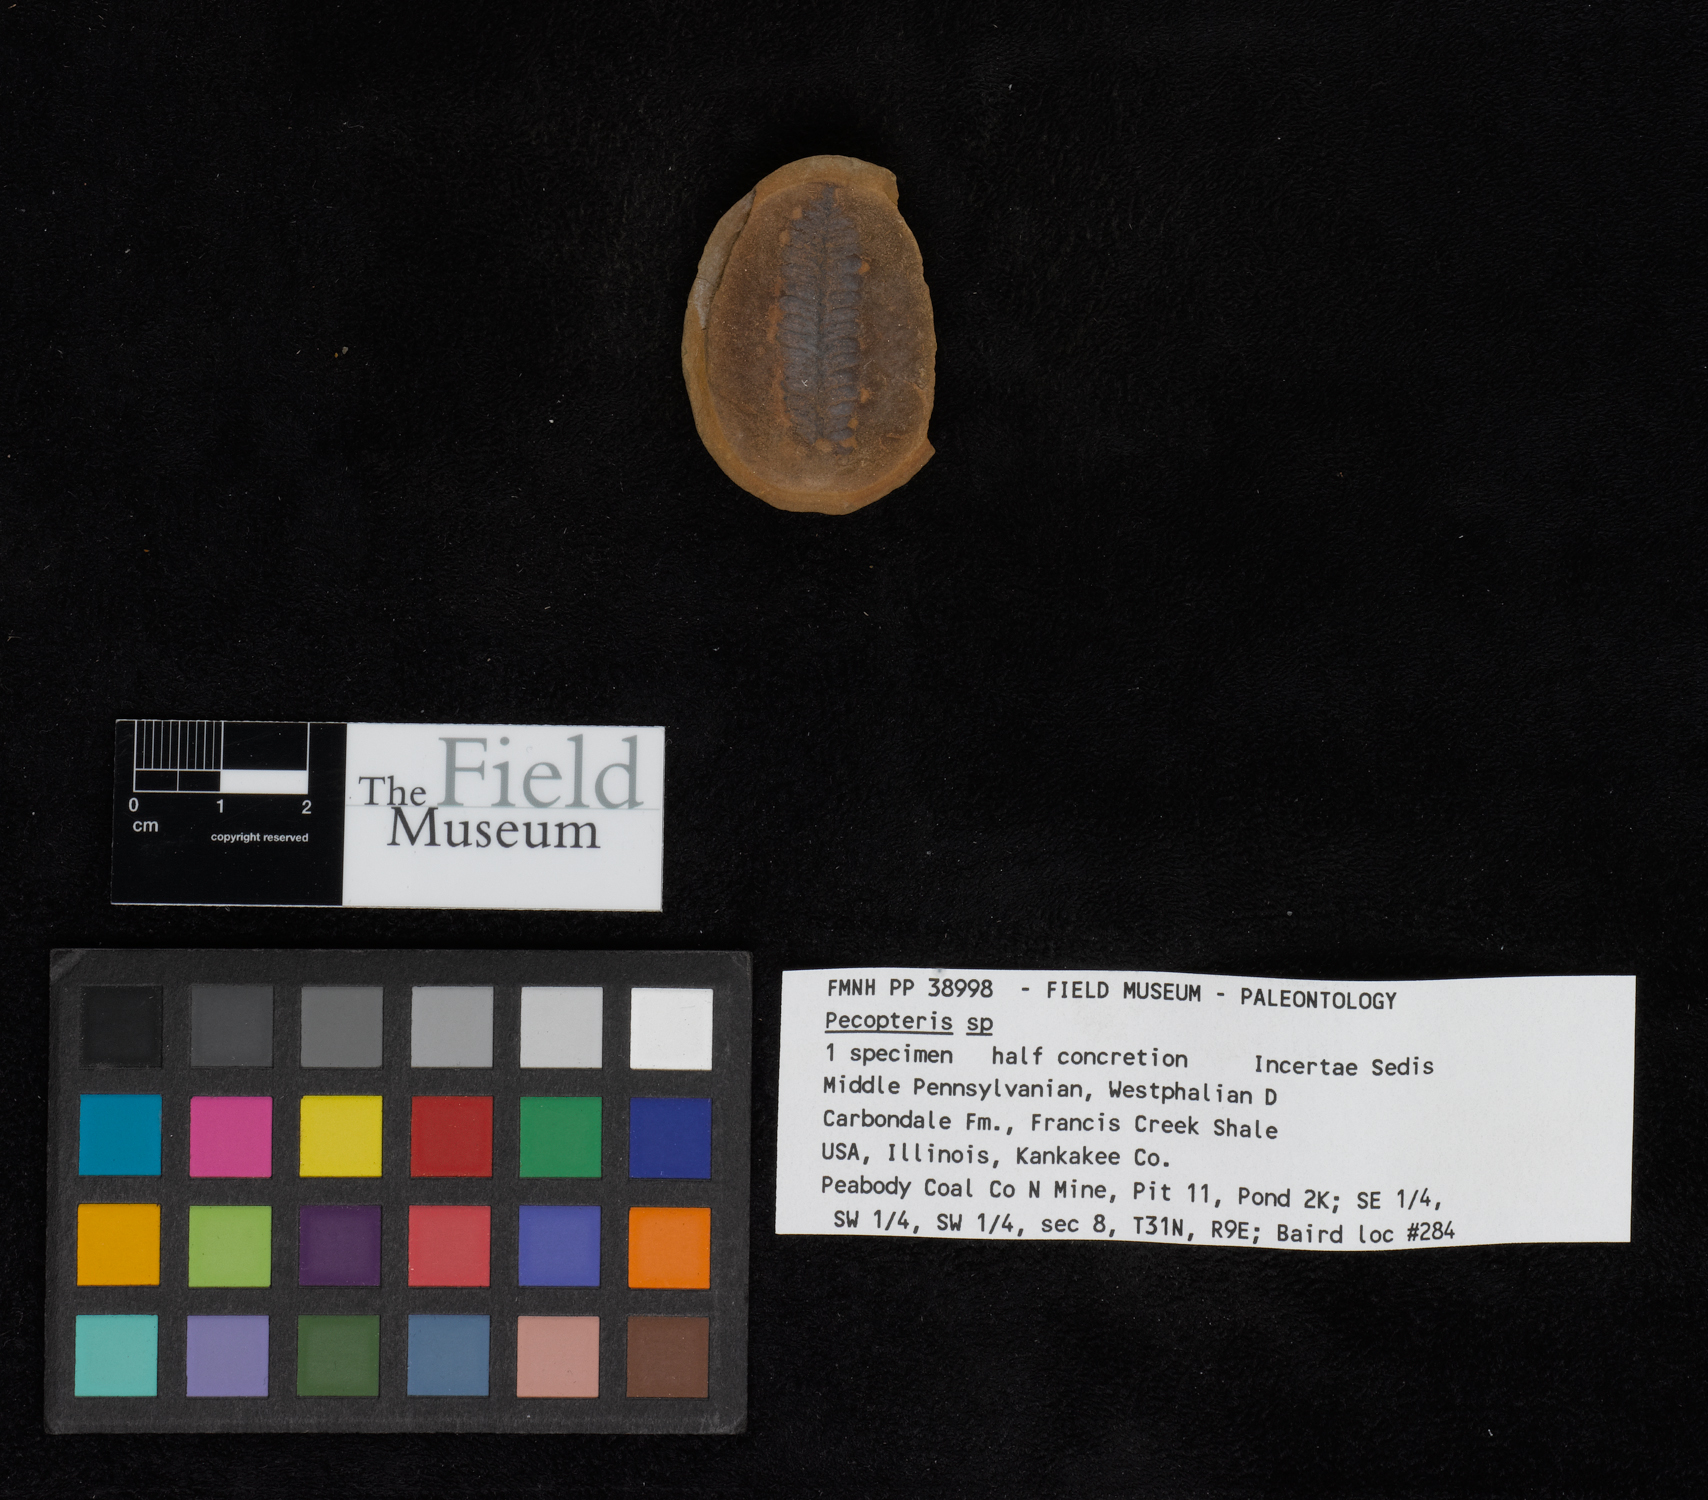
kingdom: Plantae
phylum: Tracheophyta
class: Polypodiopsida
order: Marattiales
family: Asterothecaceae
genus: Pecopteris
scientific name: Pecopteris
